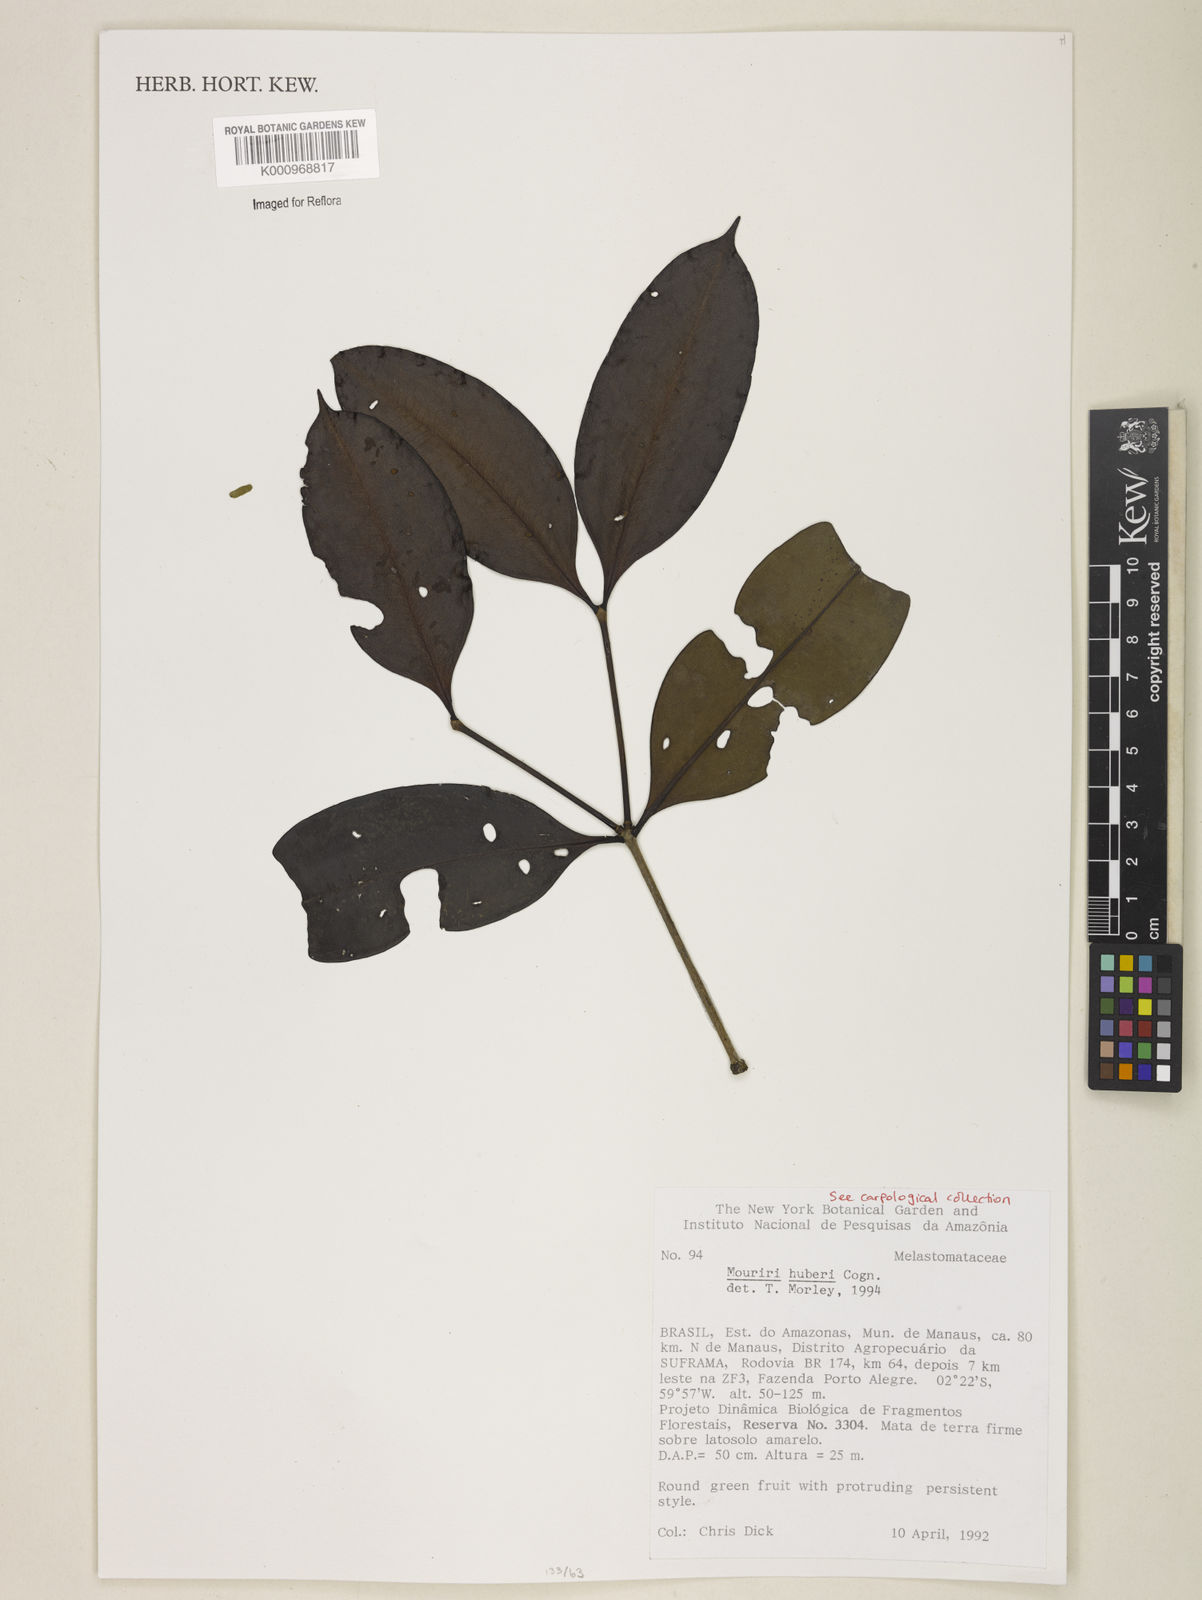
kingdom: Plantae
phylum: Tracheophyta
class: Magnoliopsida
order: Myrtales
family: Melastomataceae
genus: Mouriri
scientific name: Mouriri huberi
